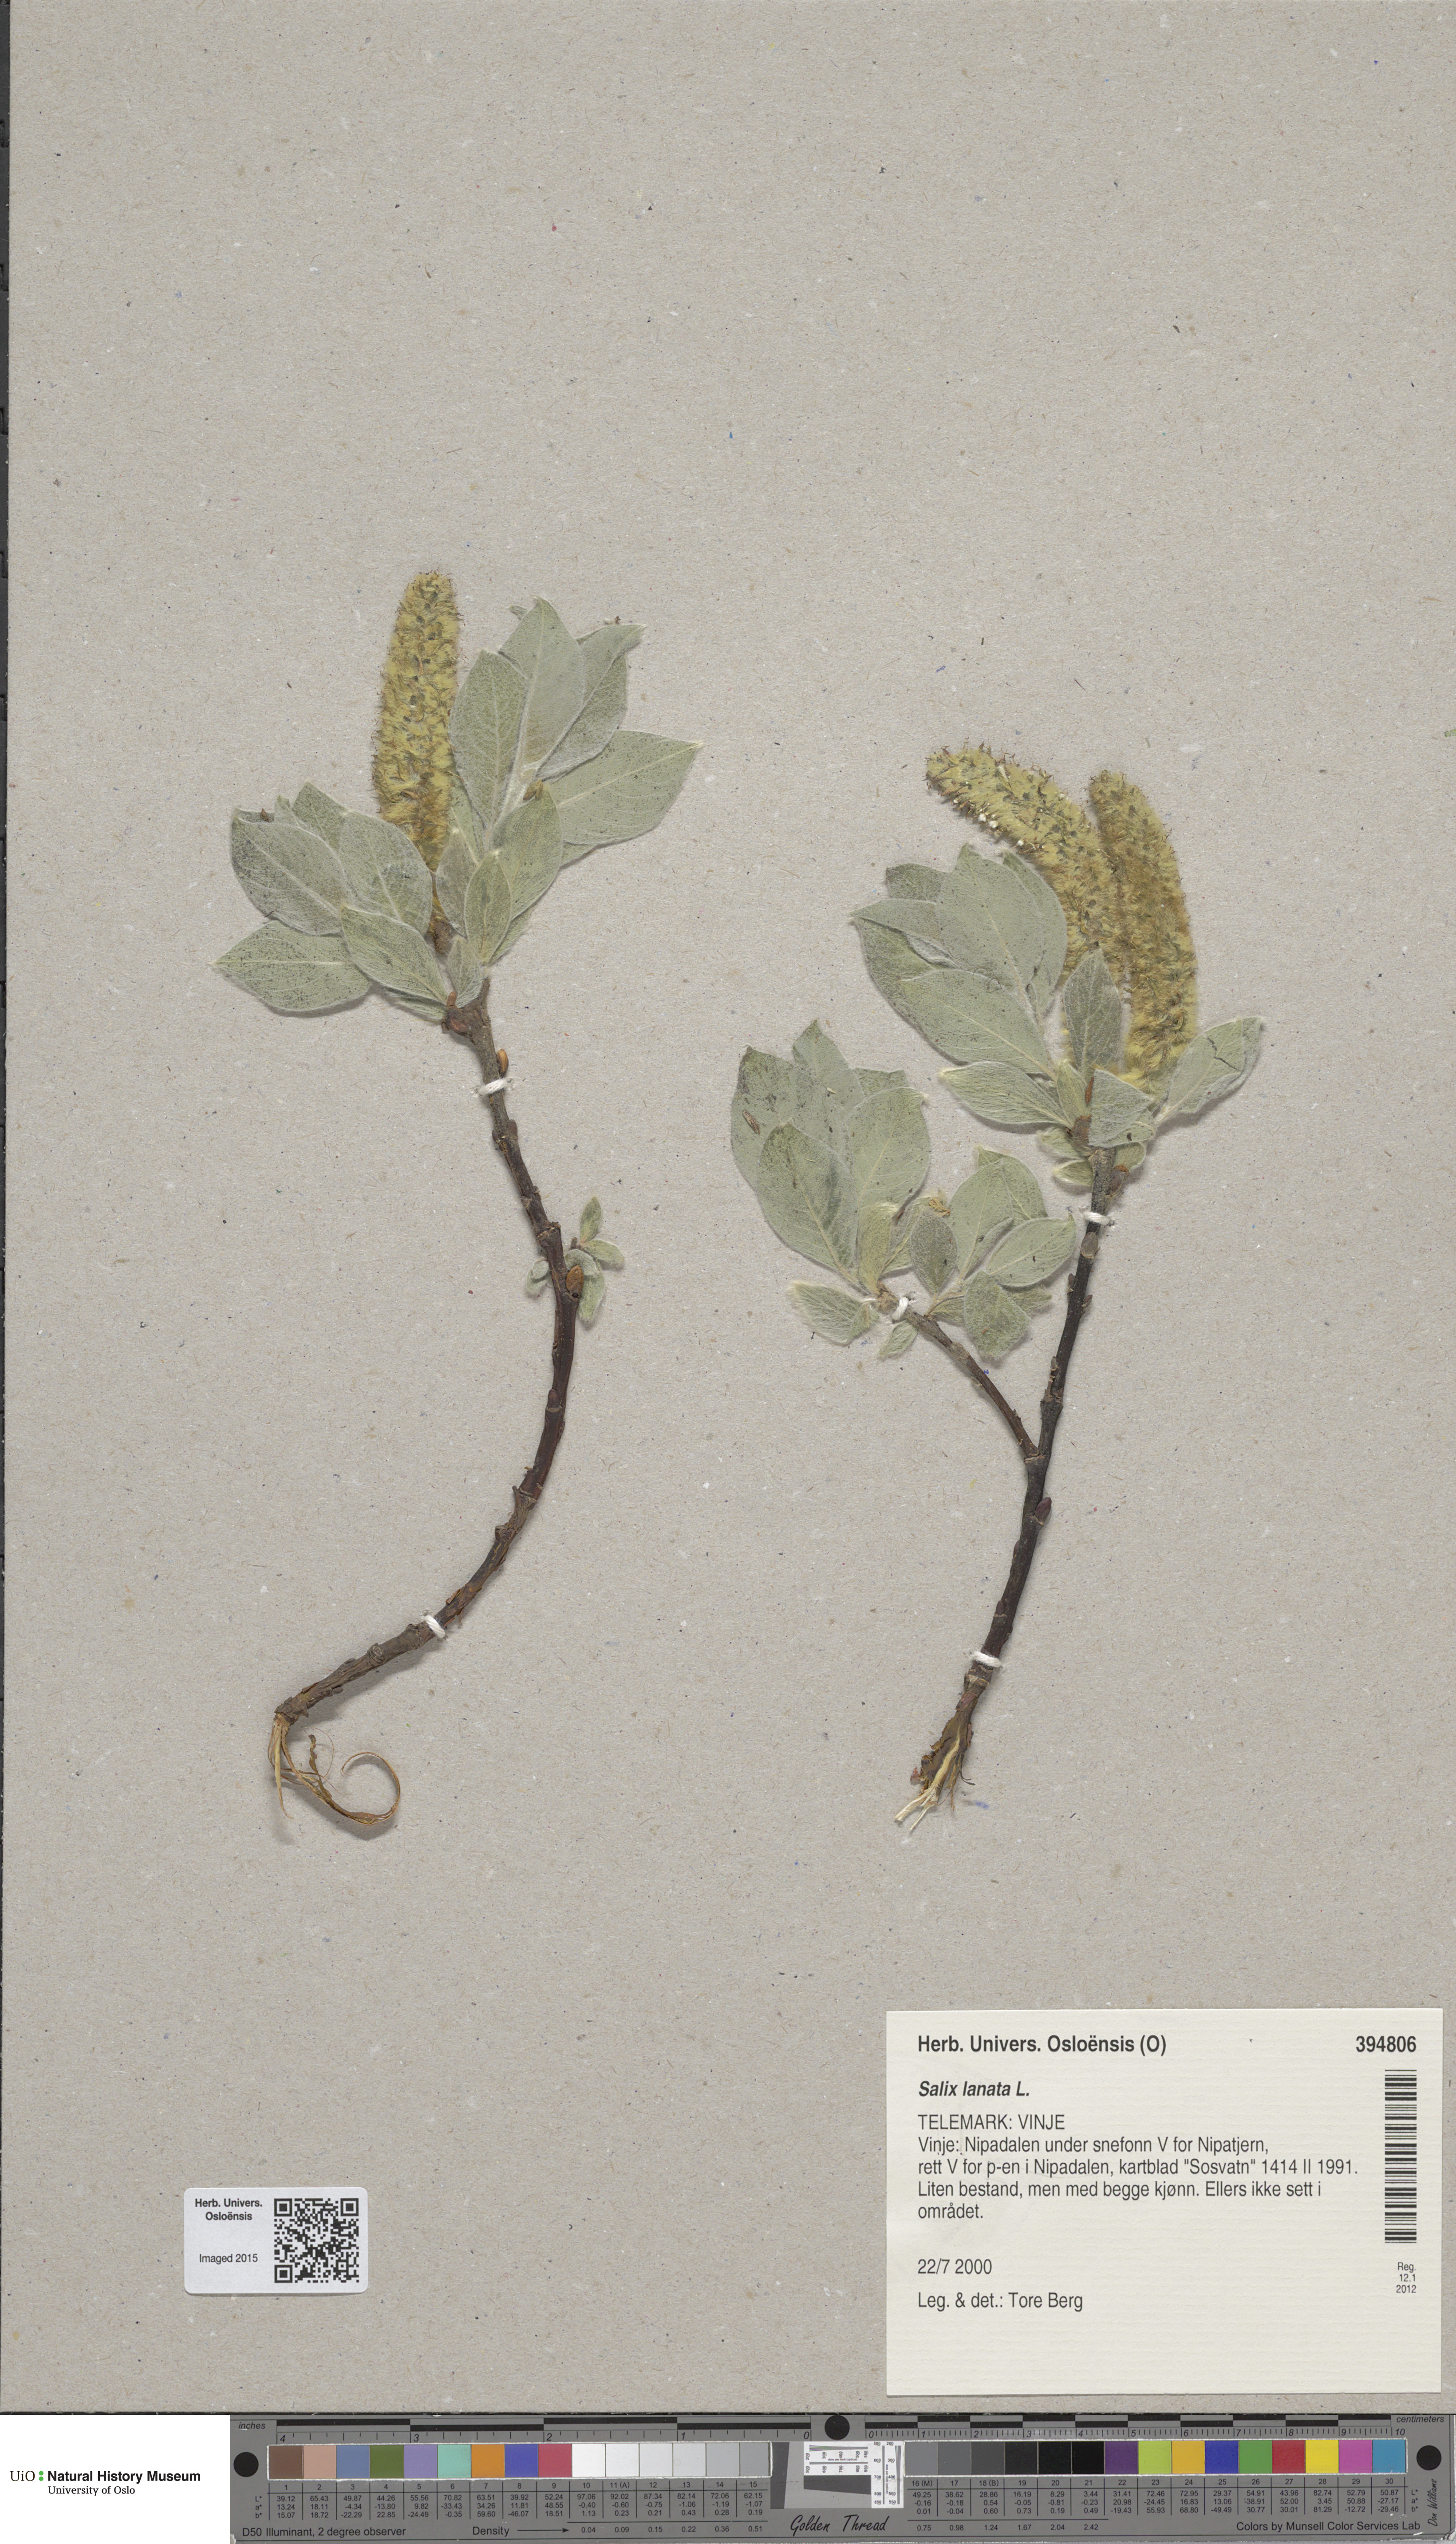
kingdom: Plantae
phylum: Tracheophyta
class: Magnoliopsida
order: Malpighiales
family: Salicaceae
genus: Salix
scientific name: Salix lanata
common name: Woolly willow
